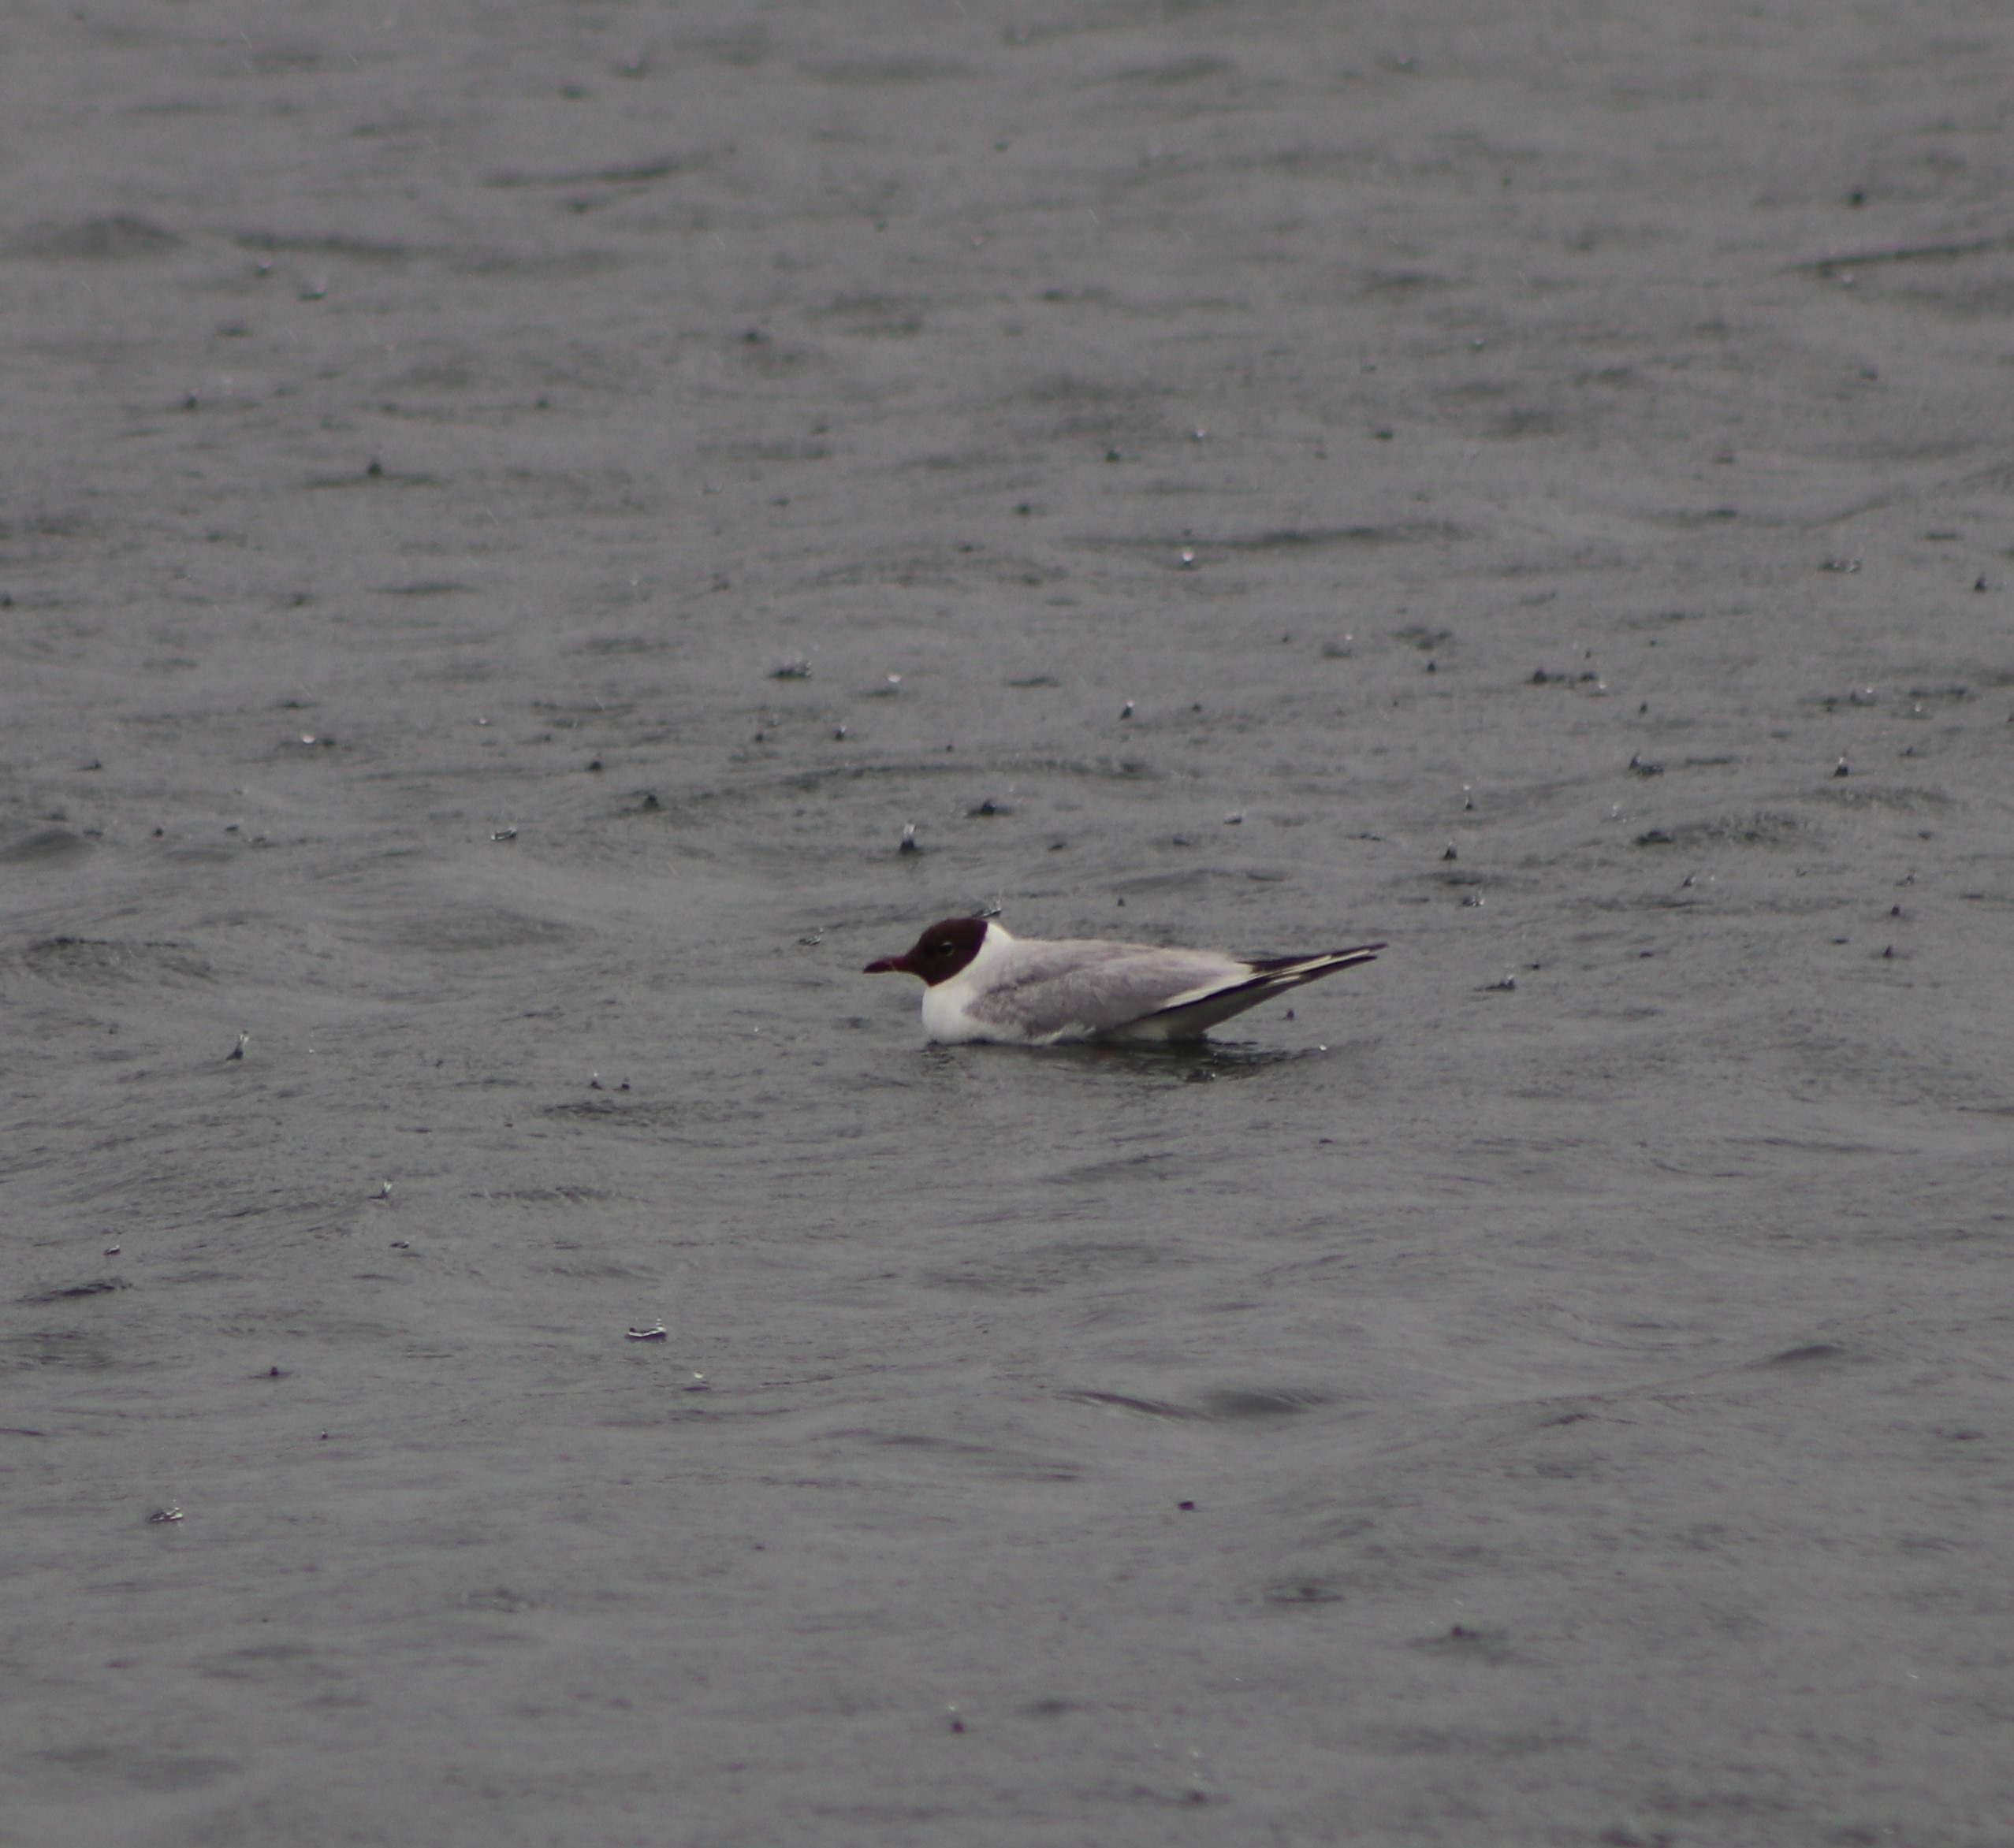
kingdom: Animalia
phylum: Chordata
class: Aves
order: Charadriiformes
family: Laridae
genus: Chroicocephalus
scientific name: Chroicocephalus ridibundus
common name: Hættemåge
